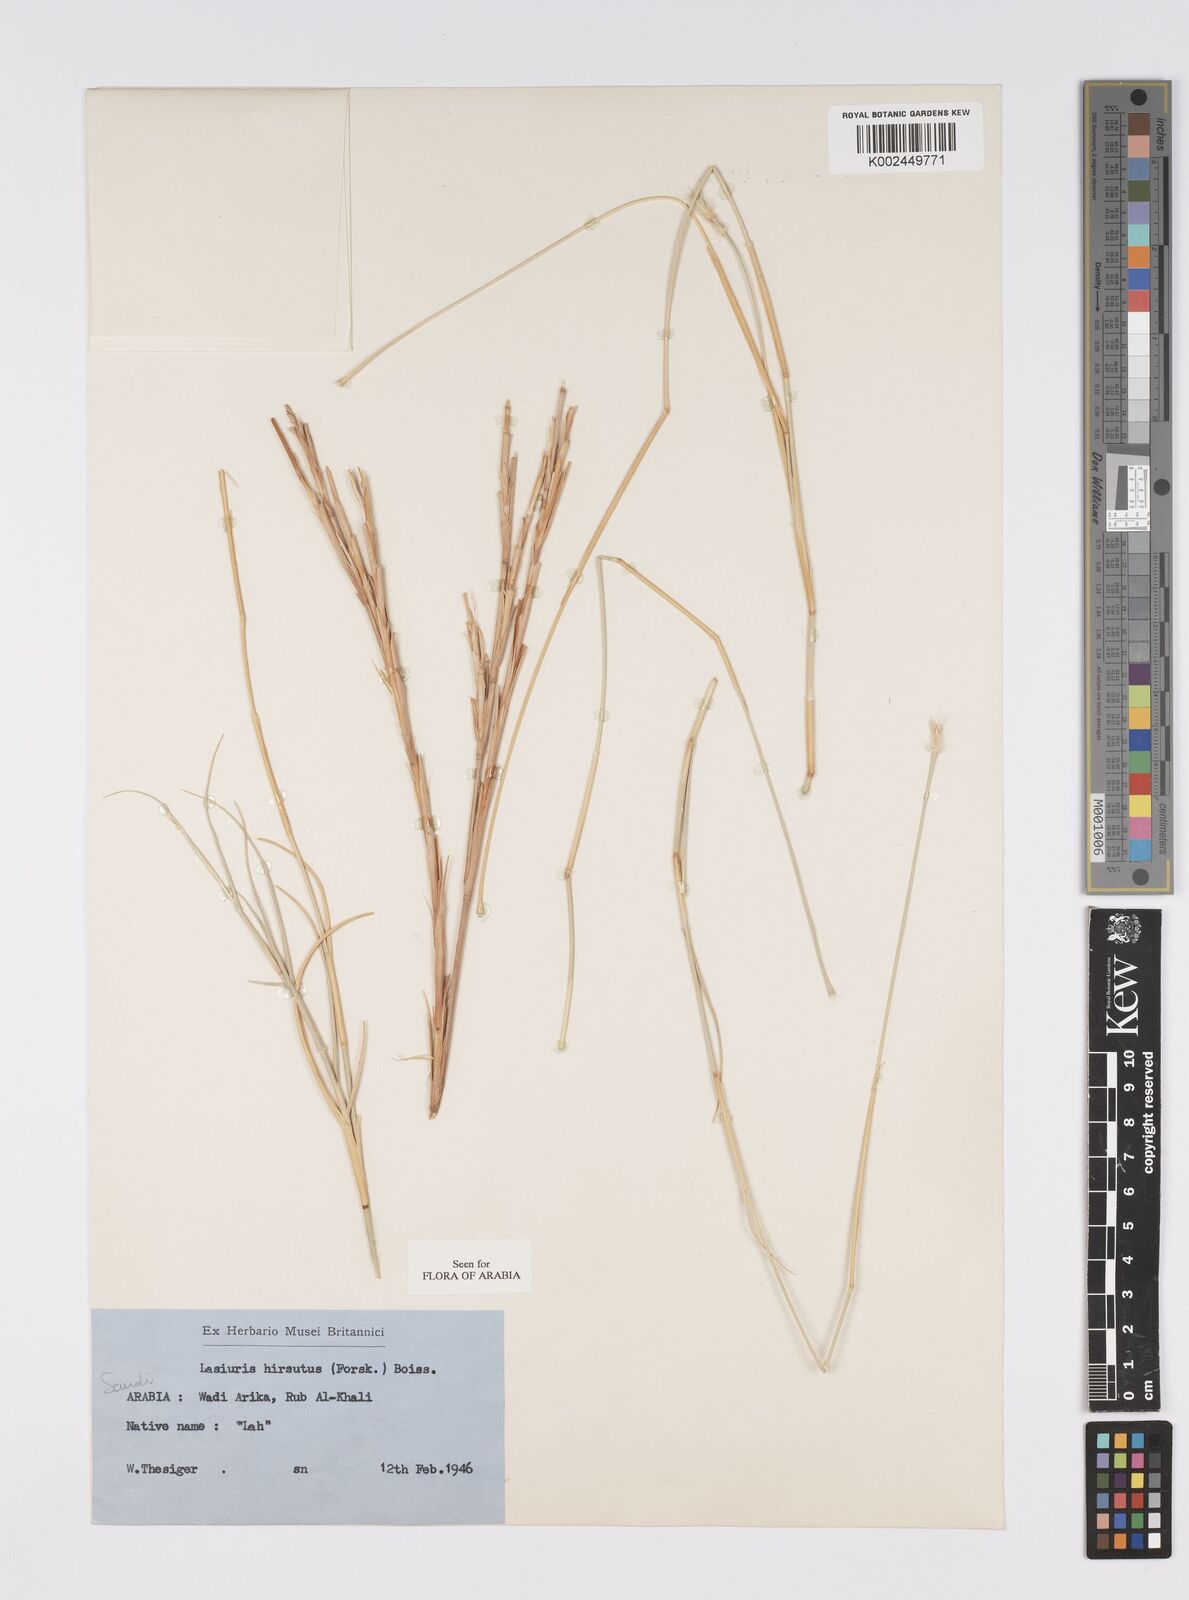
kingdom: Plantae
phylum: Tracheophyta
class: Liliopsida
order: Poales
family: Poaceae
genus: Lasiurus
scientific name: Lasiurus scindicus
